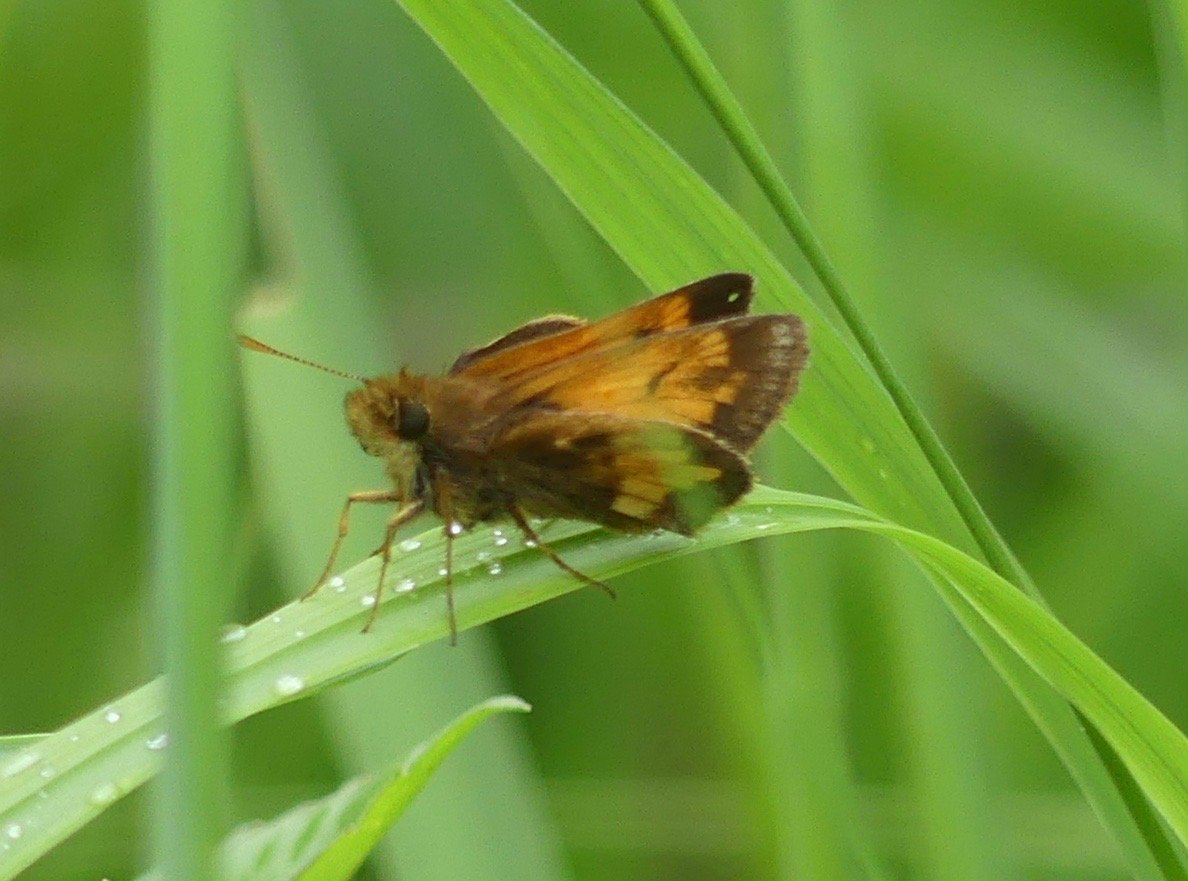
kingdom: Animalia
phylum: Arthropoda
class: Insecta
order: Lepidoptera
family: Hesperiidae
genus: Polites
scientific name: Polites coras
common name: Peck's Skipper
